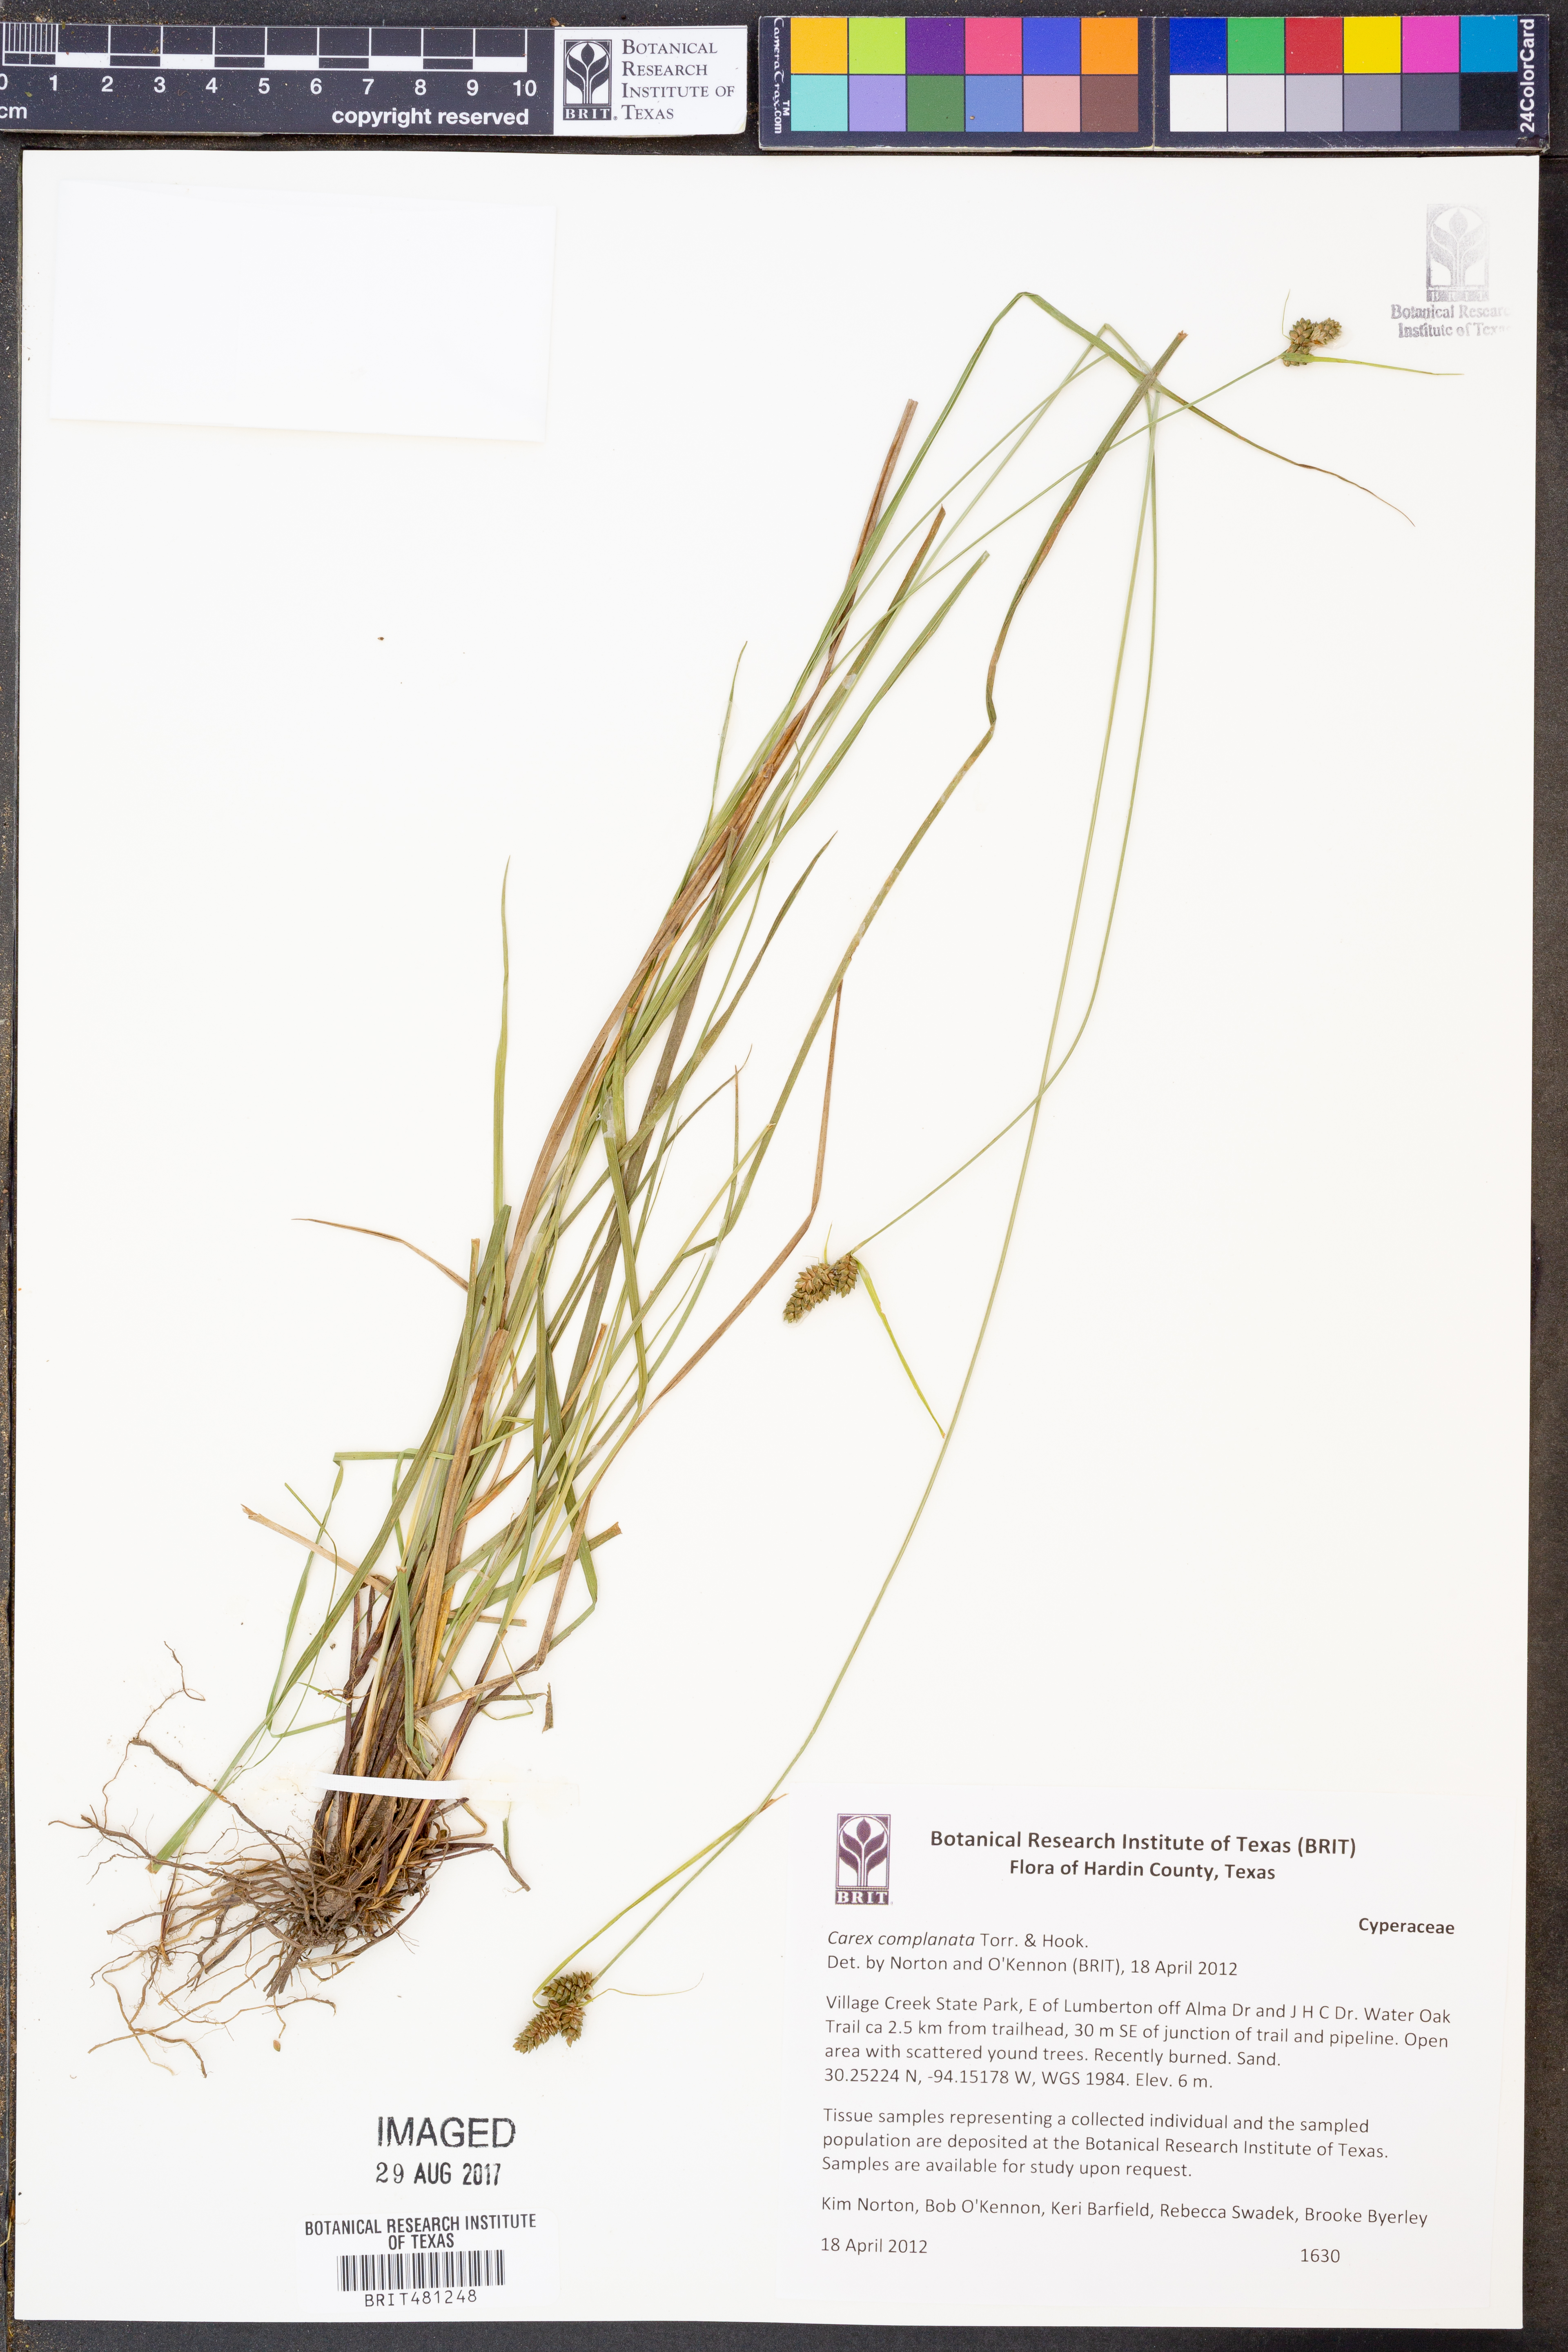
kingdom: Plantae
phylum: Tracheophyta
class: Liliopsida
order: Poales
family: Cyperaceae
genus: Carex
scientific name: Carex complanata
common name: Hirsute sedge
